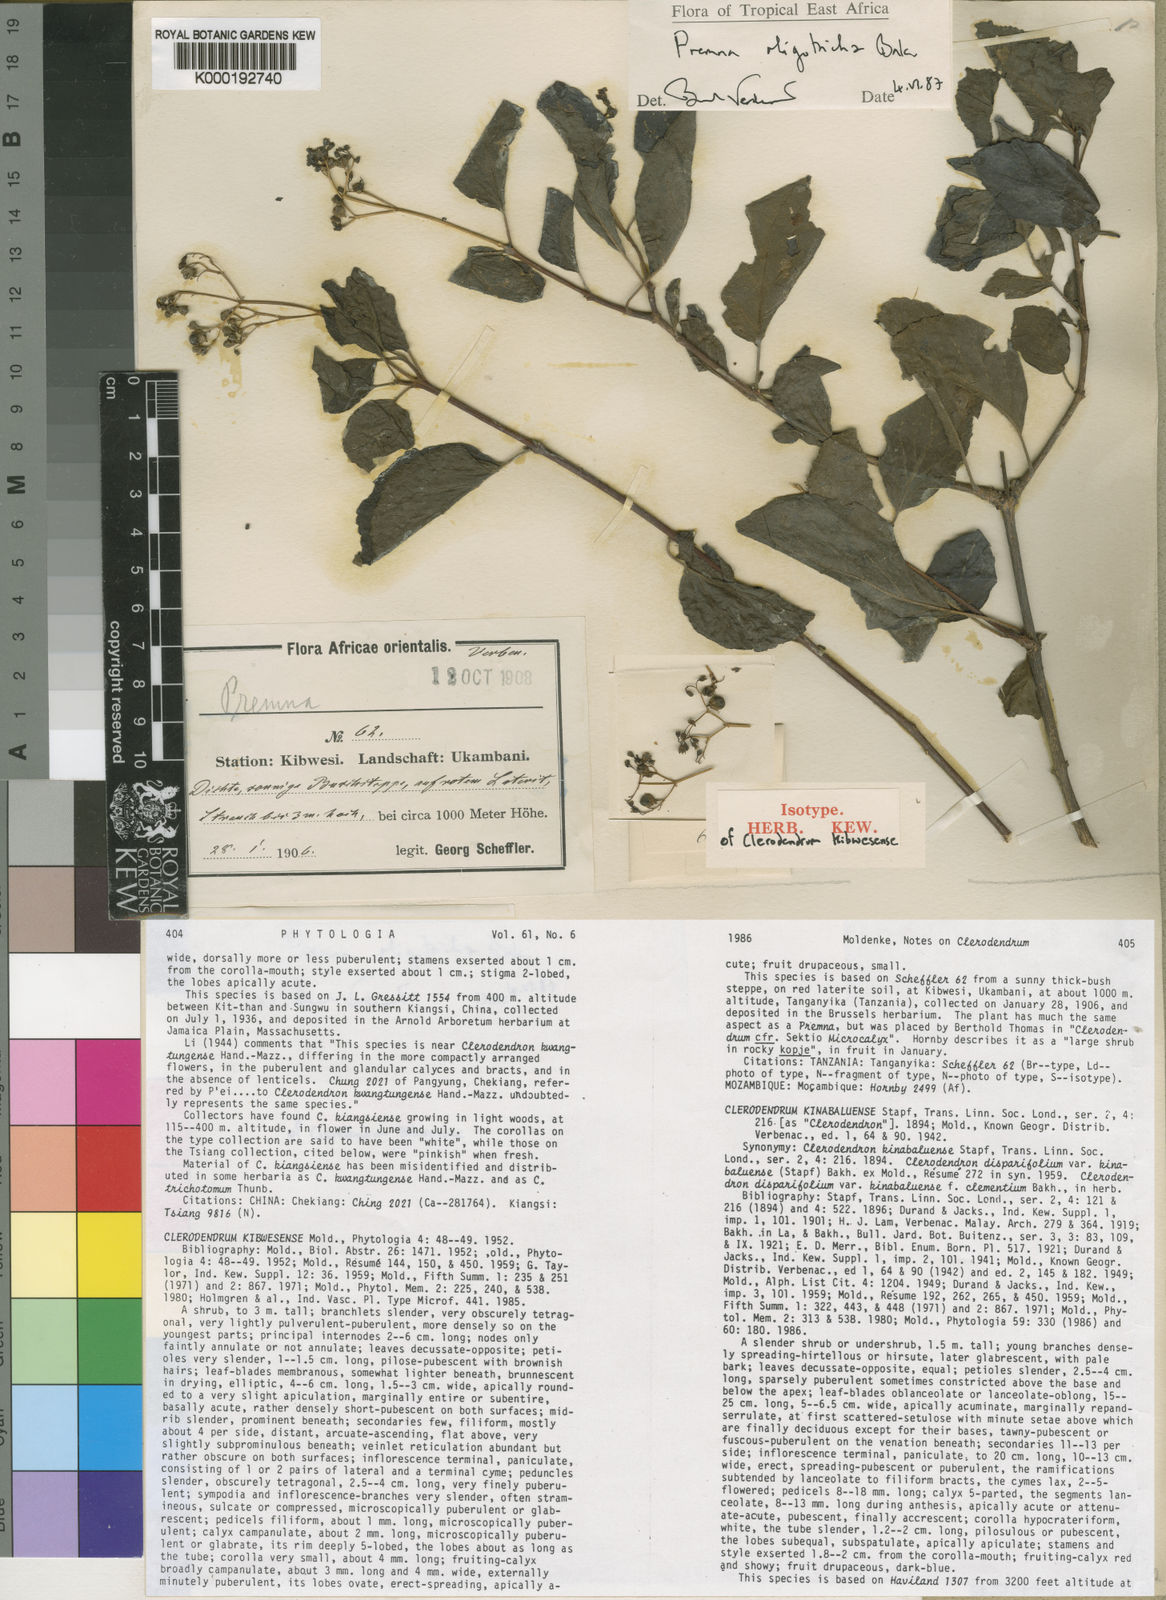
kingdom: Plantae
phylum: Tracheophyta
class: Magnoliopsida
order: Lamiales
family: Lamiaceae
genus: Premna
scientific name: Premna oligotricha
